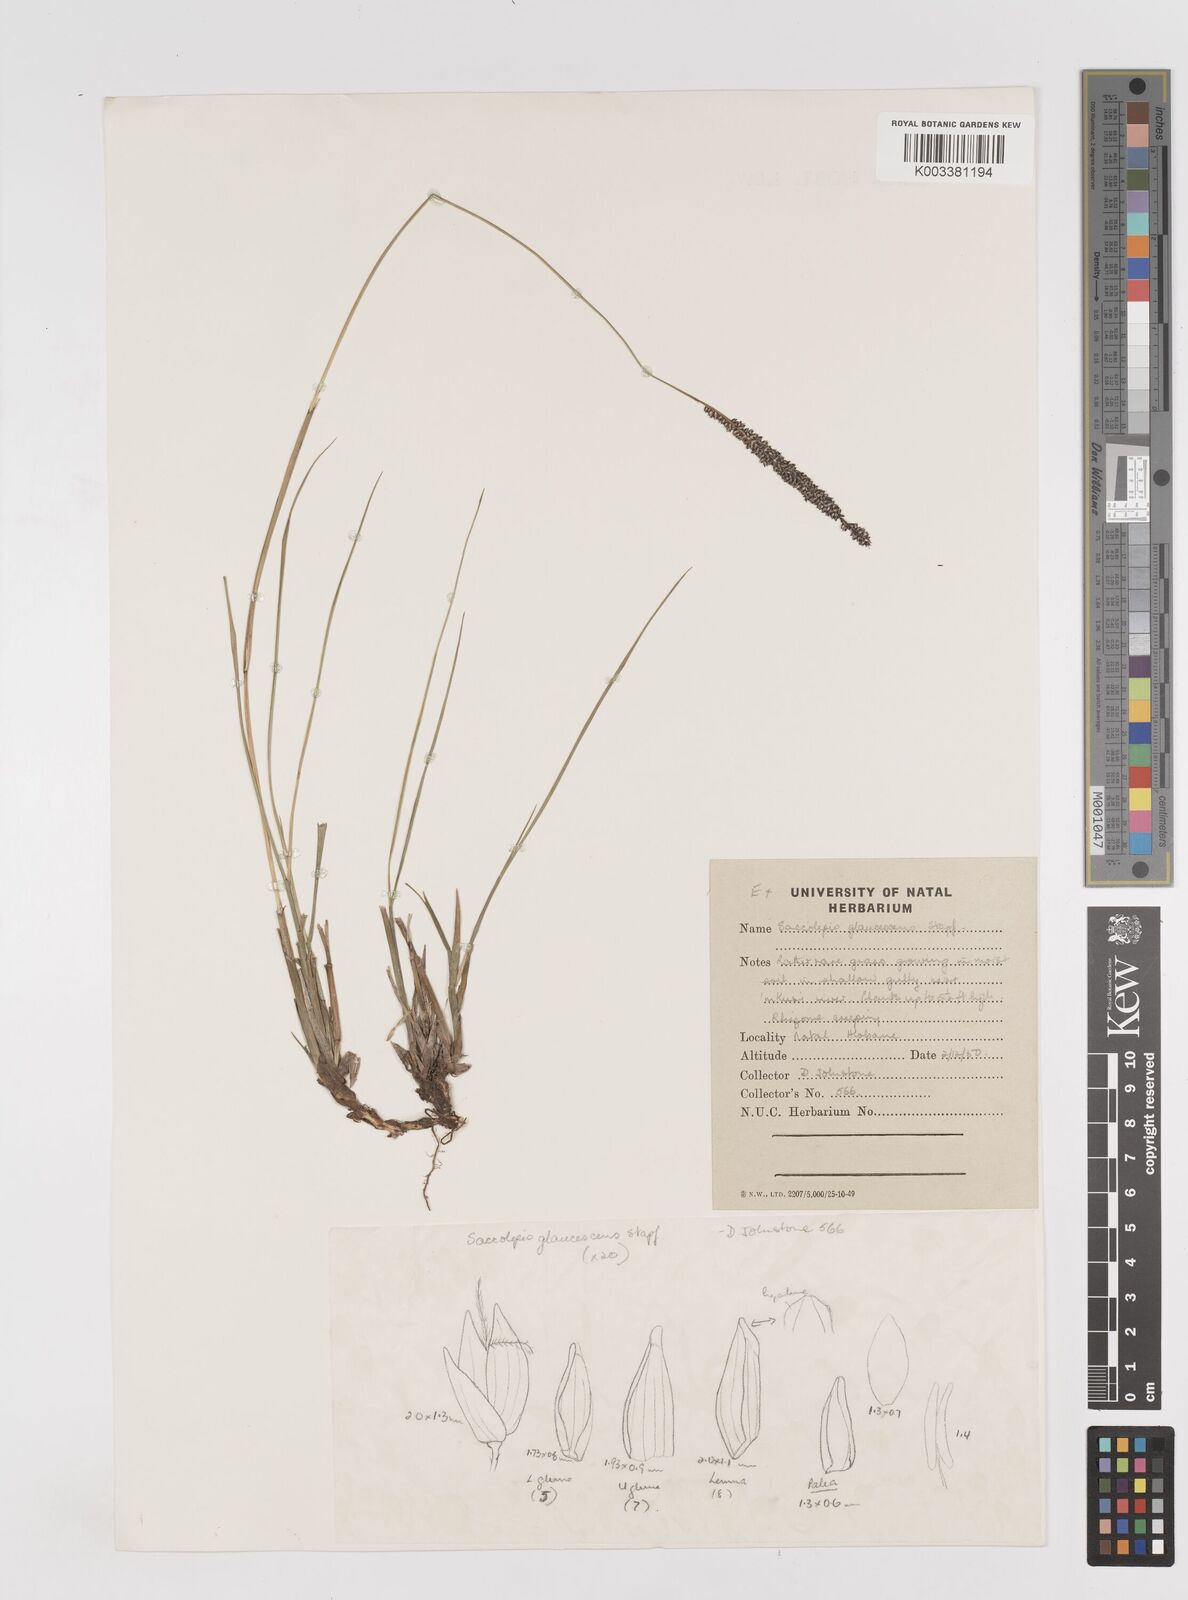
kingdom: Plantae
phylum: Tracheophyta
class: Liliopsida
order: Poales
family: Poaceae
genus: Sacciolepis
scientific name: Sacciolepis chevalieri
